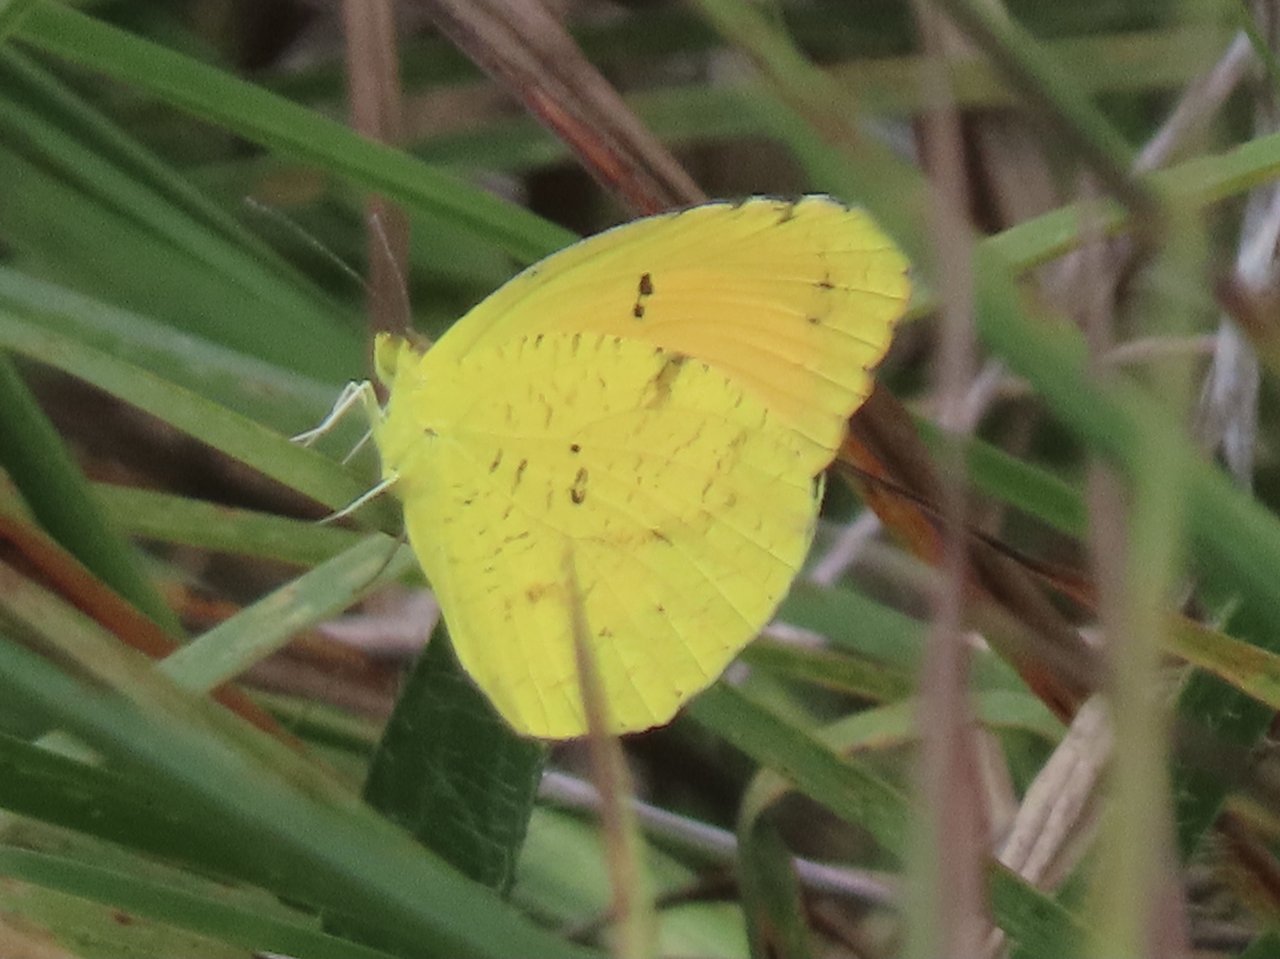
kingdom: Animalia
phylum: Arthropoda
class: Insecta
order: Lepidoptera
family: Pieridae
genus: Abaeis
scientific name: Abaeis nicippe
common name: Sleepy Orange
